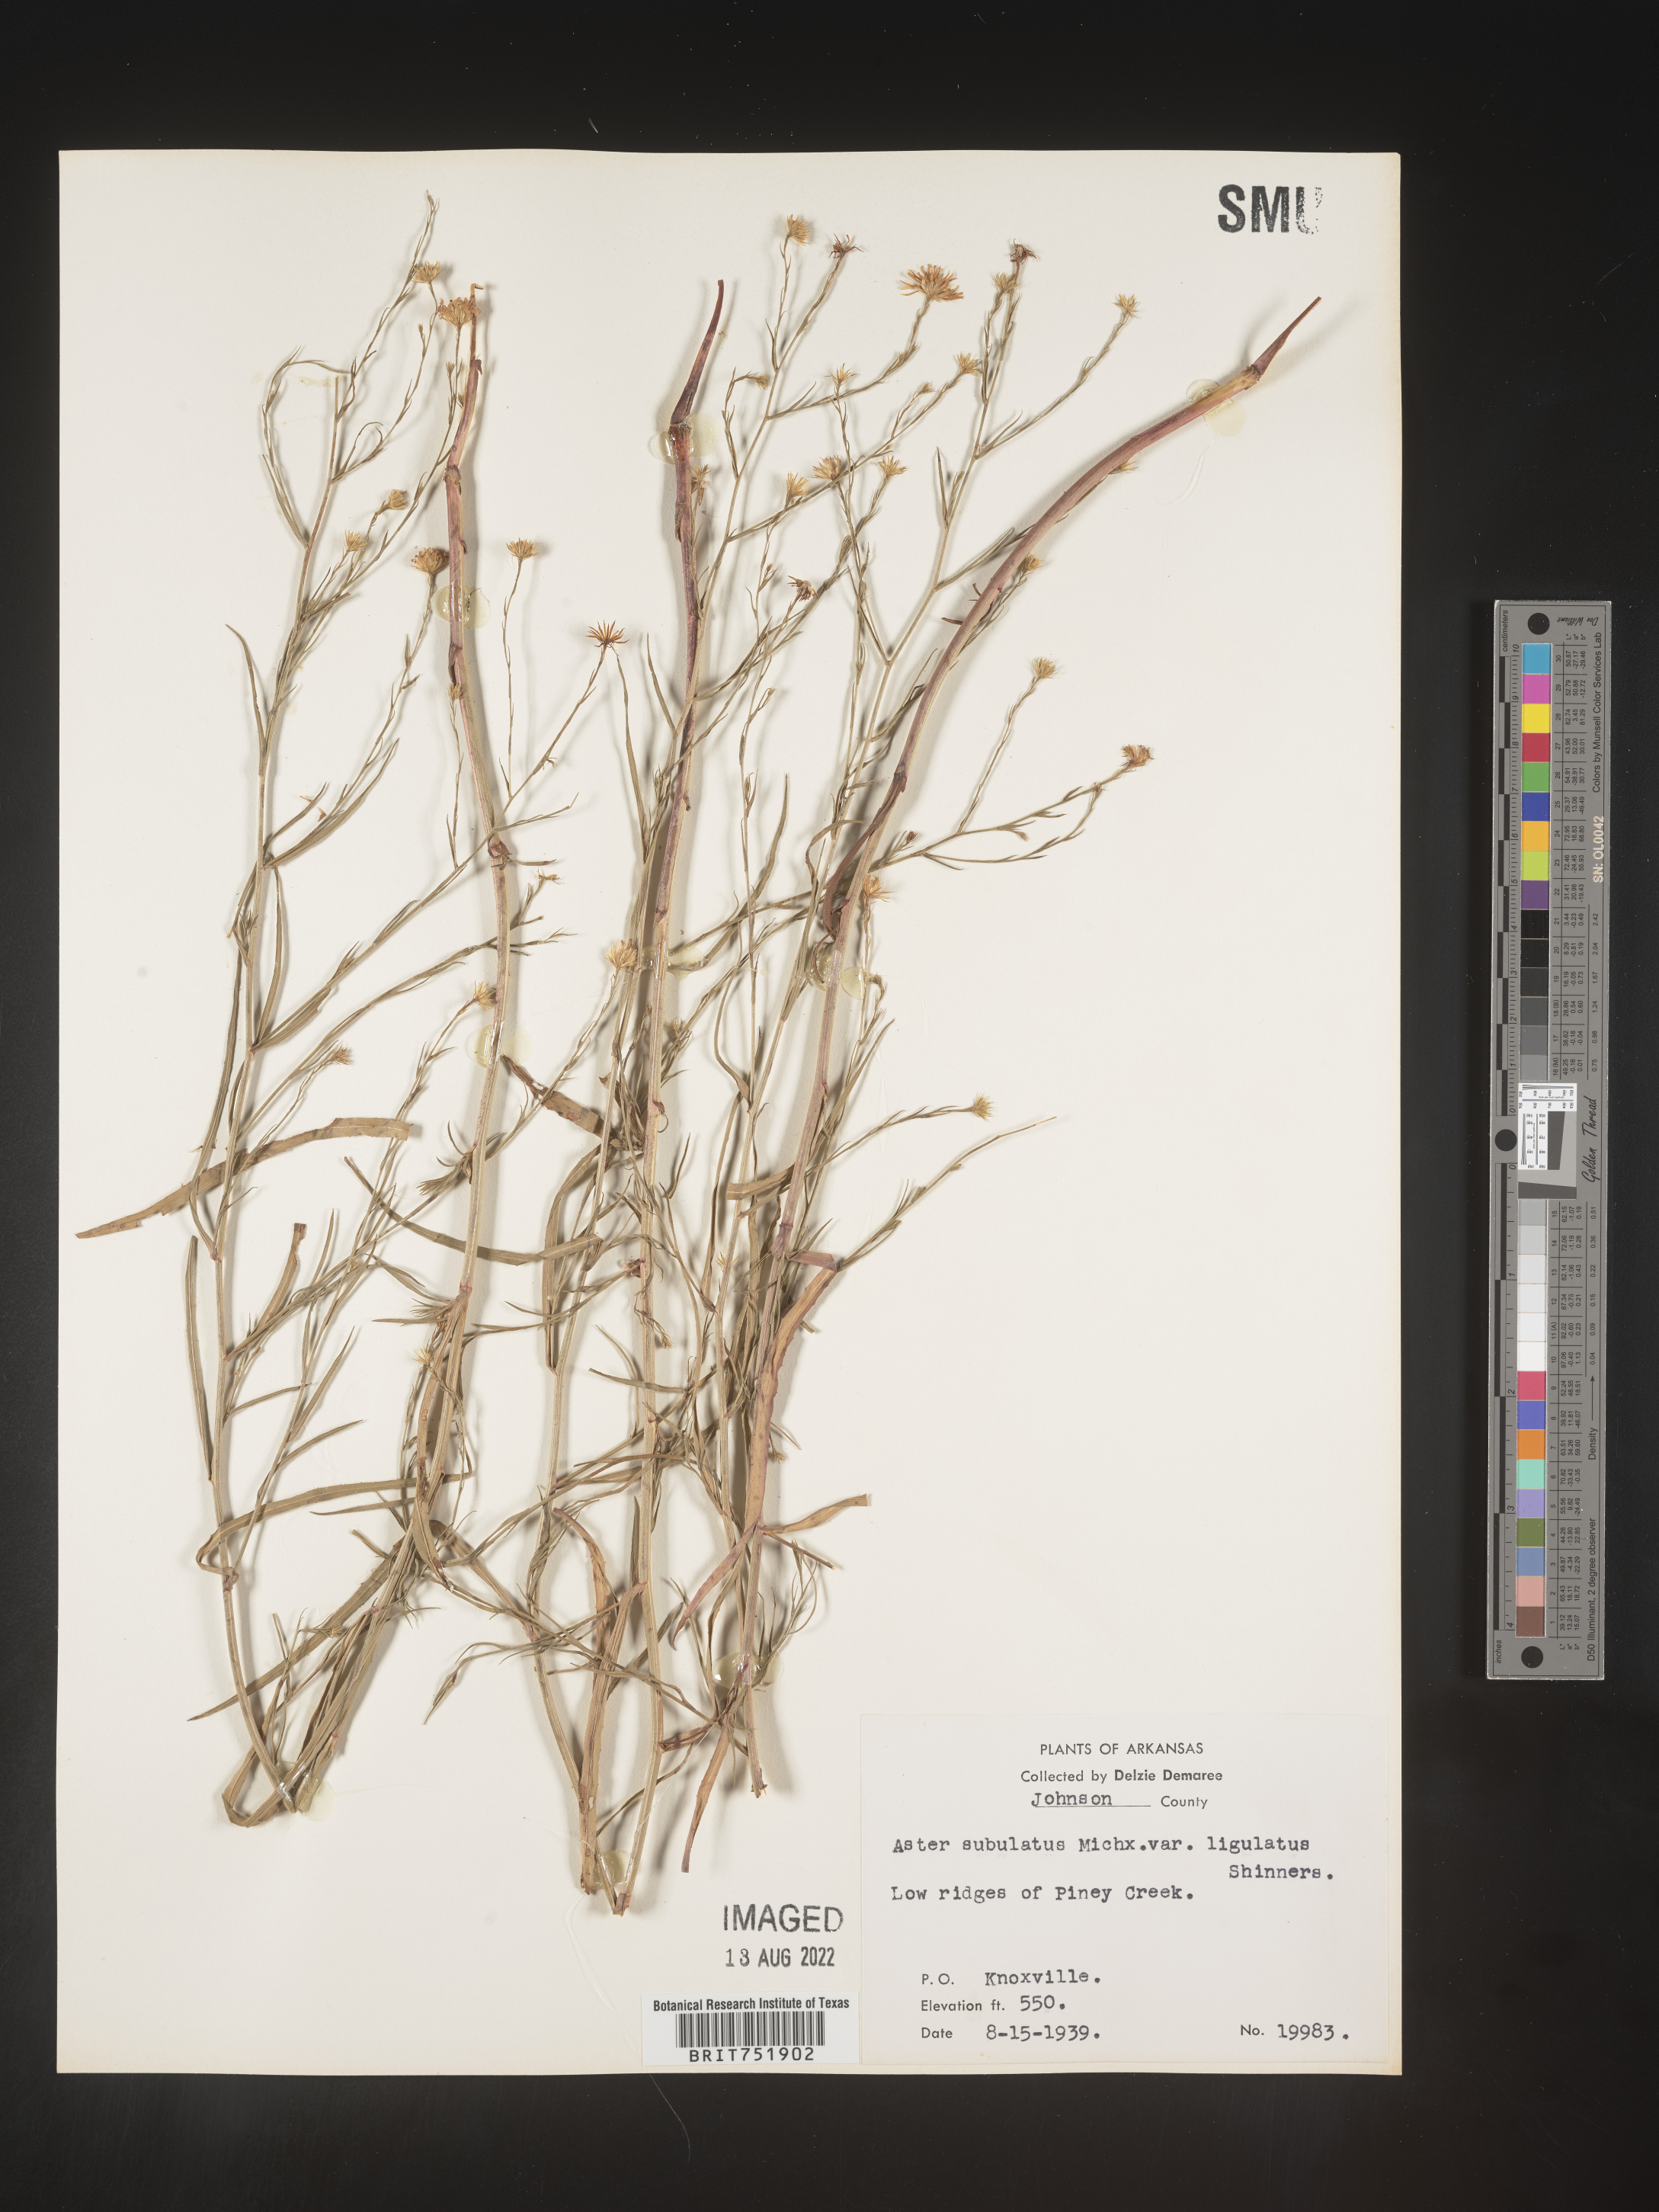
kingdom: Plantae
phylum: Tracheophyta
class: Magnoliopsida
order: Asterales
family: Asteraceae
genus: Symphyotrichum
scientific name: Symphyotrichum divaricatum
